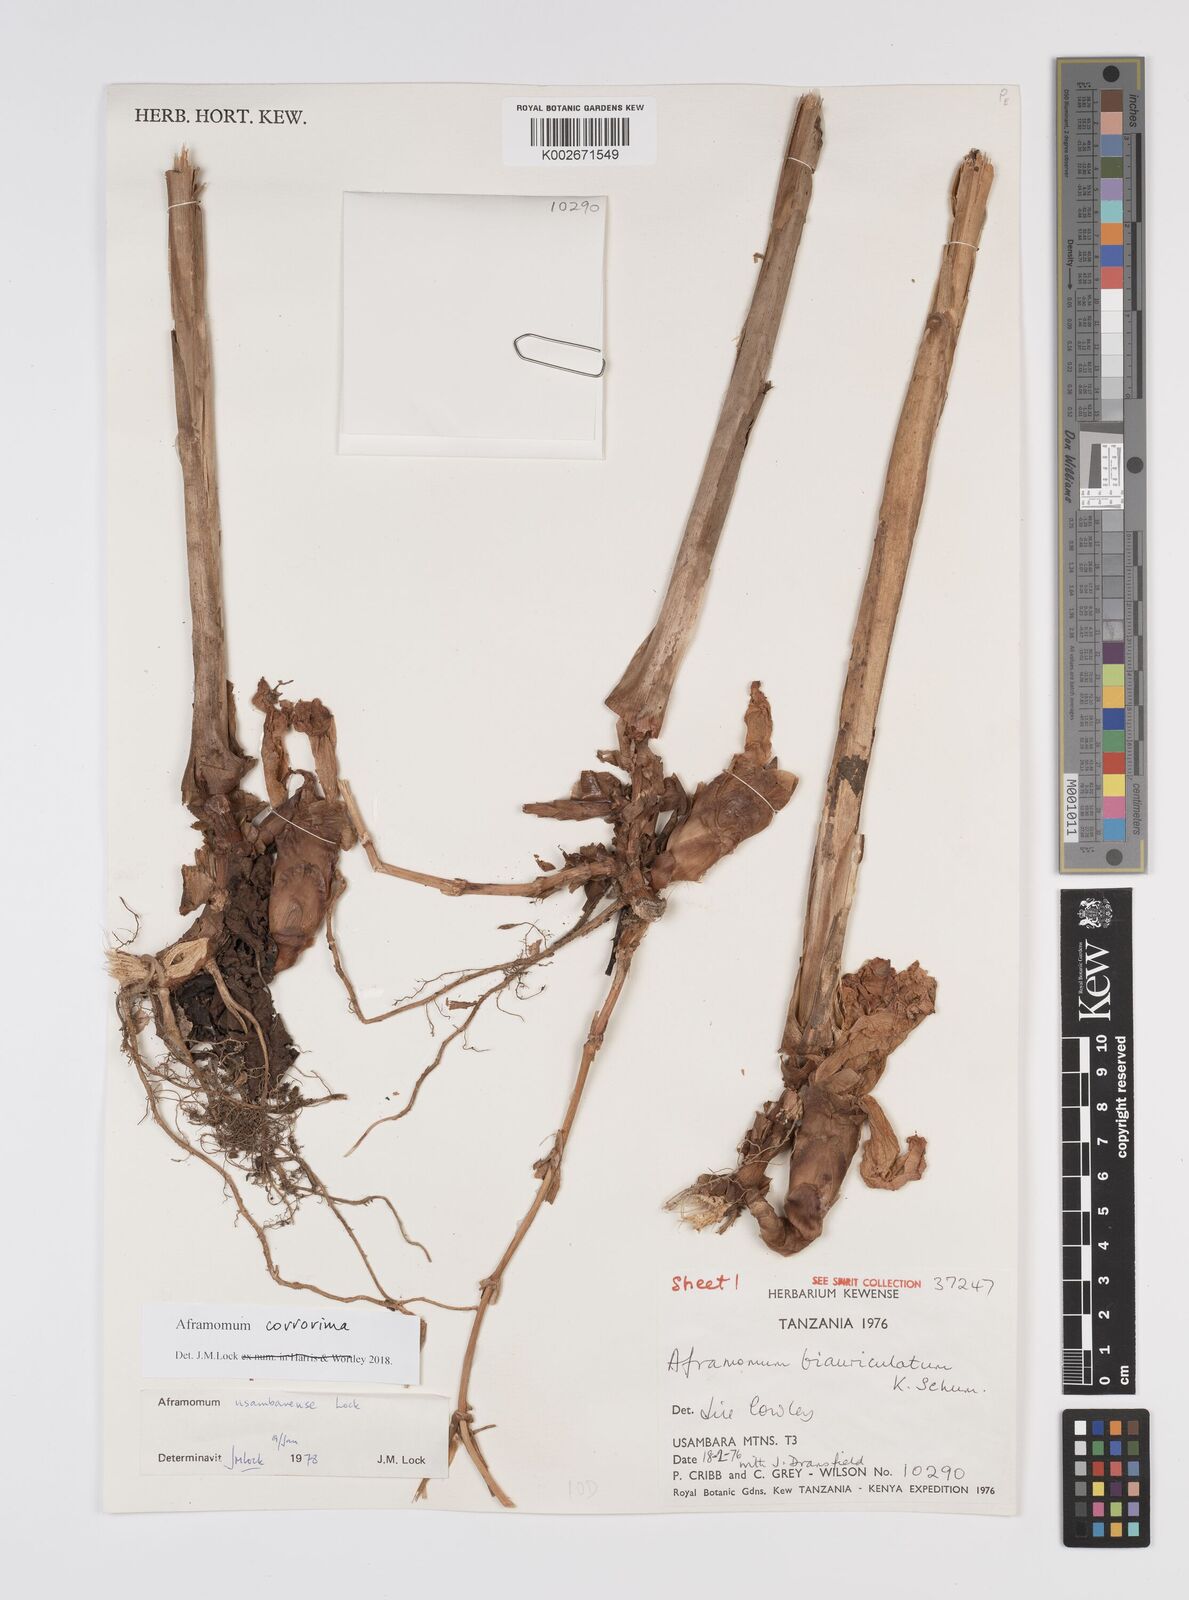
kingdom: Plantae
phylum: Tracheophyta
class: Liliopsida
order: Zingiberales
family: Zingiberaceae
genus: Aframomum
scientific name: Aframomum corrorima
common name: Ethiopian cardamom
